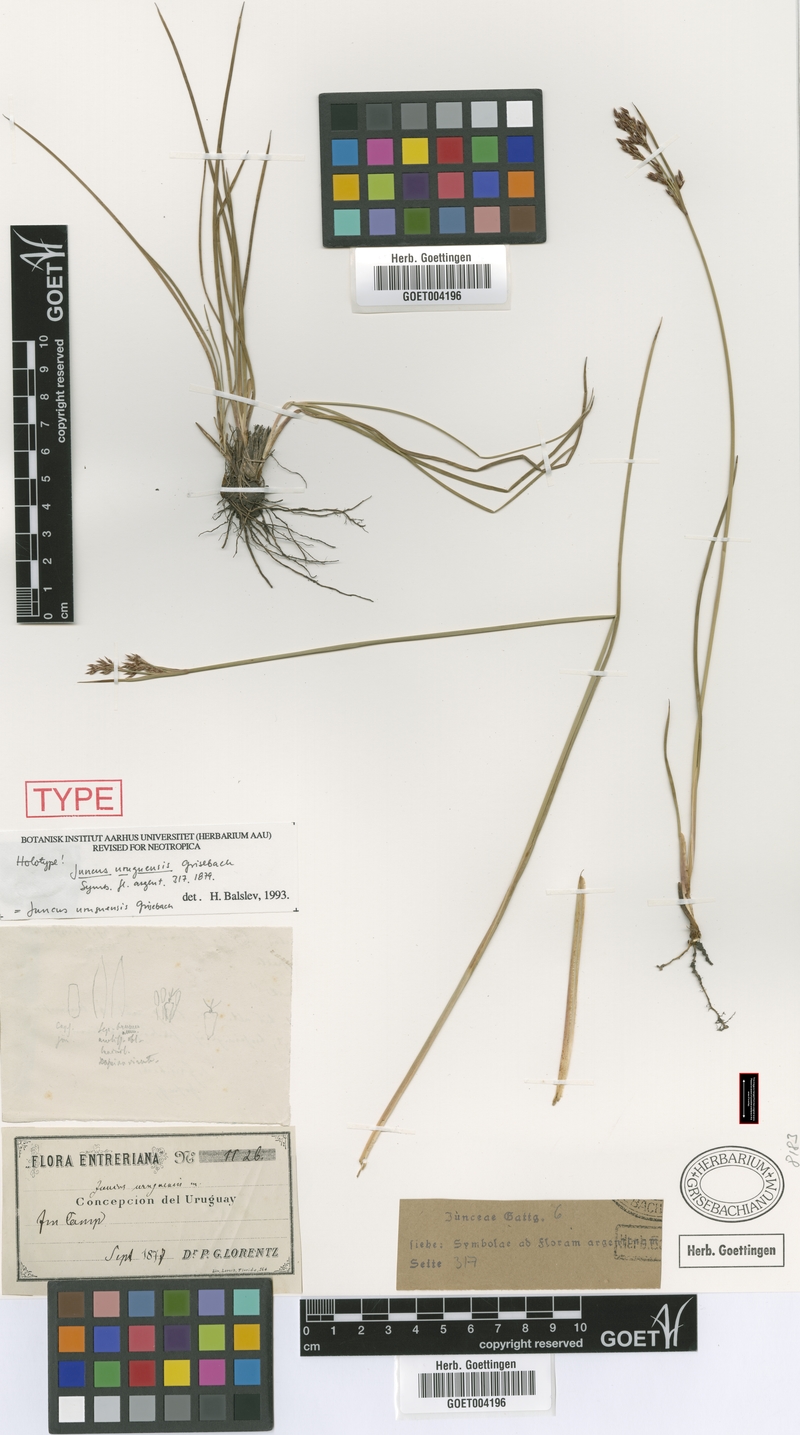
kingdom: Plantae
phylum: Tracheophyta
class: Liliopsida
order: Poales
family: Juncaceae
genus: Juncus
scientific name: Juncus uruguensis
